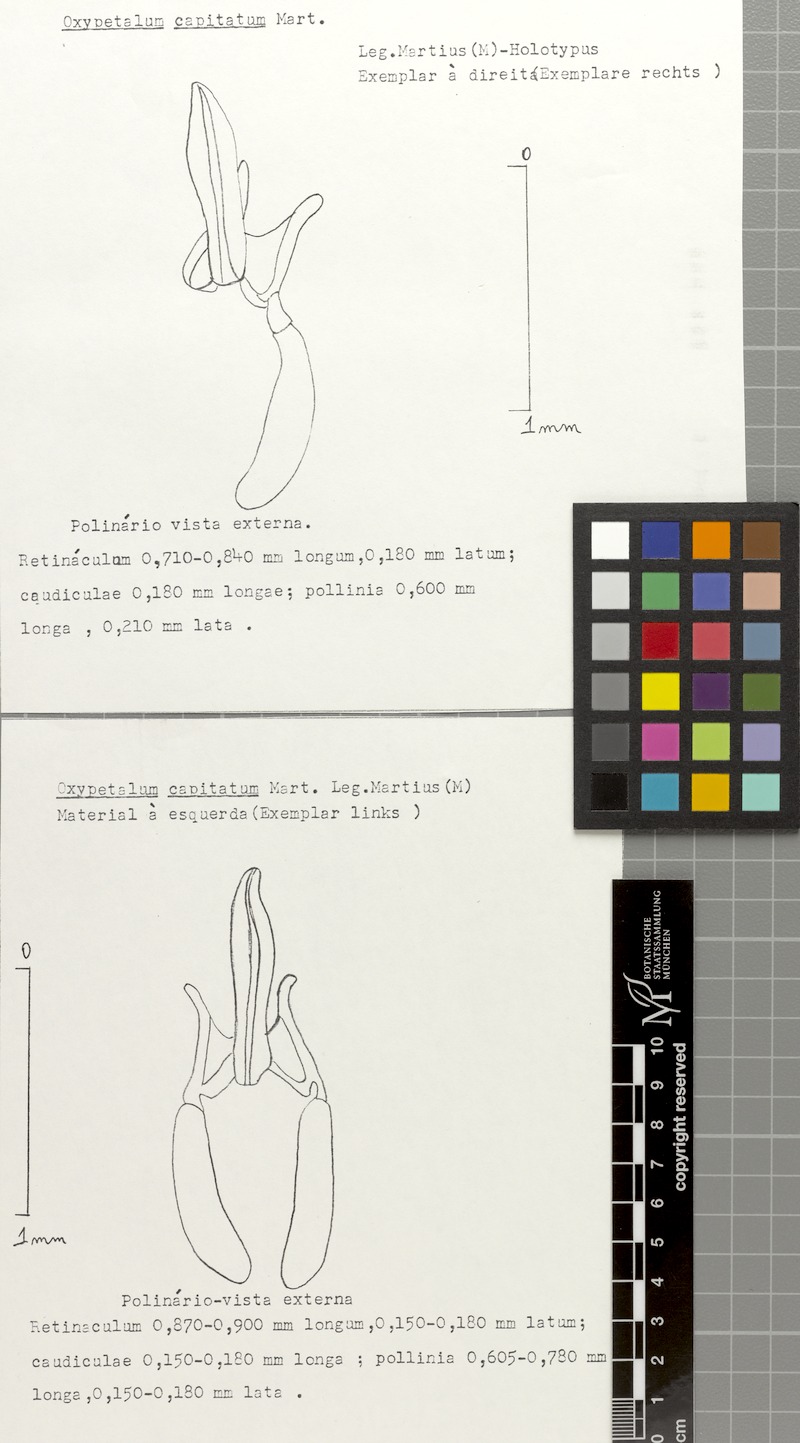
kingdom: Plantae
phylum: Tracheophyta
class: Magnoliopsida
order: Gentianales
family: Apocynaceae
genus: Oxypetalum
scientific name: Oxypetalum capitatum
